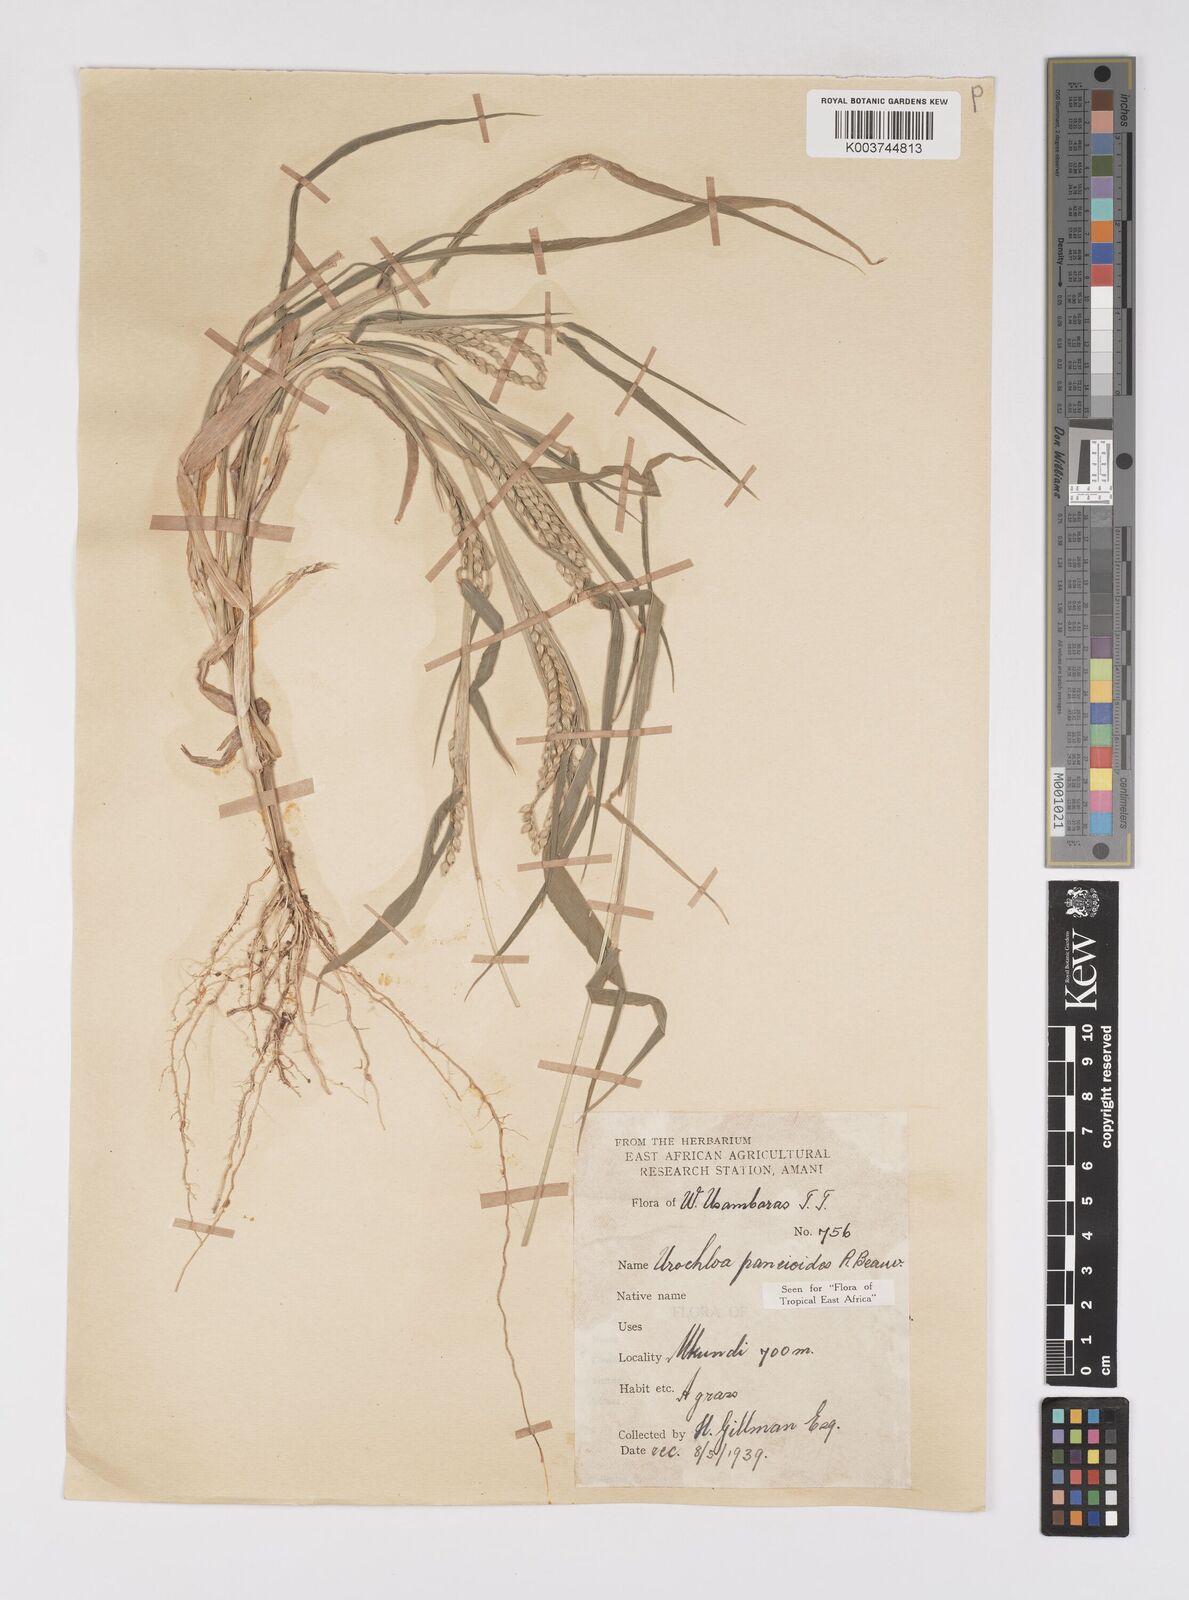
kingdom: Plantae
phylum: Tracheophyta
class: Liliopsida
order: Poales
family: Poaceae
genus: Urochloa
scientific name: Urochloa panicoides
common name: Sharp-flowered signal-grass
